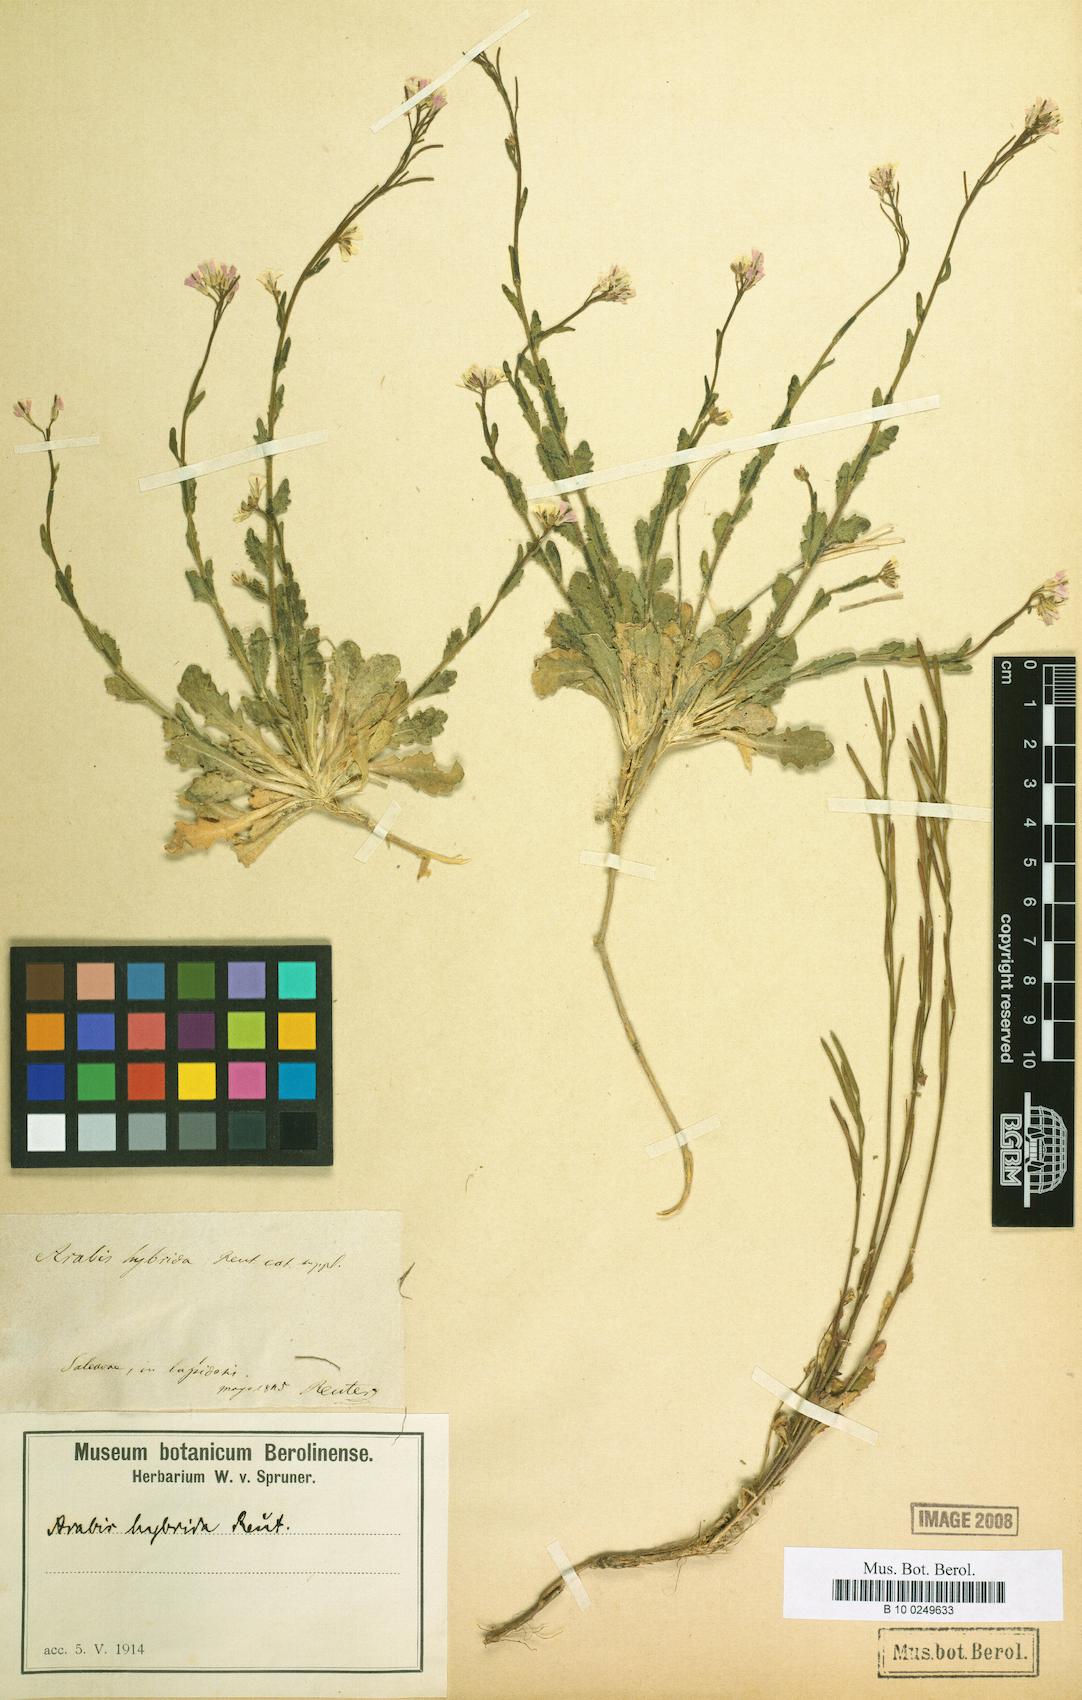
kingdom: Plantae
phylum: Tracheophyta
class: Magnoliopsida
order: Brassicales
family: Brassicaceae
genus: Arabis
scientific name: Arabis ciliata
